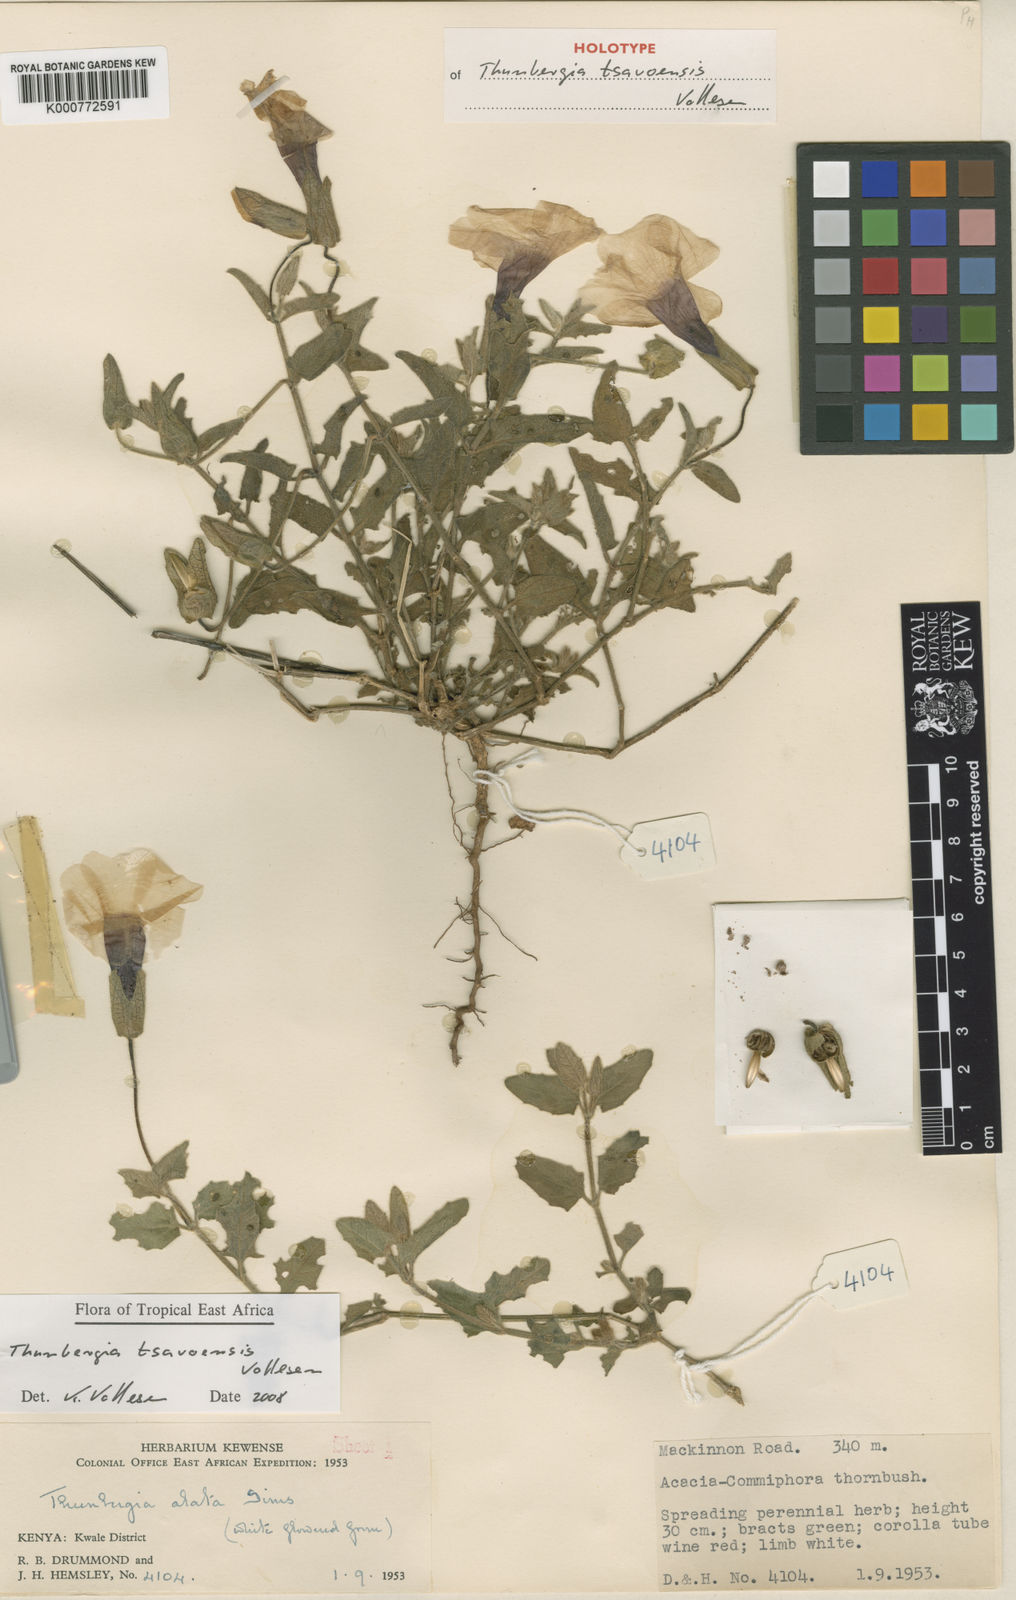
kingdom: Plantae
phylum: Tracheophyta
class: Magnoliopsida
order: Lamiales
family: Acanthaceae
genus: Thunbergia
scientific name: Thunbergia tsavoensis
